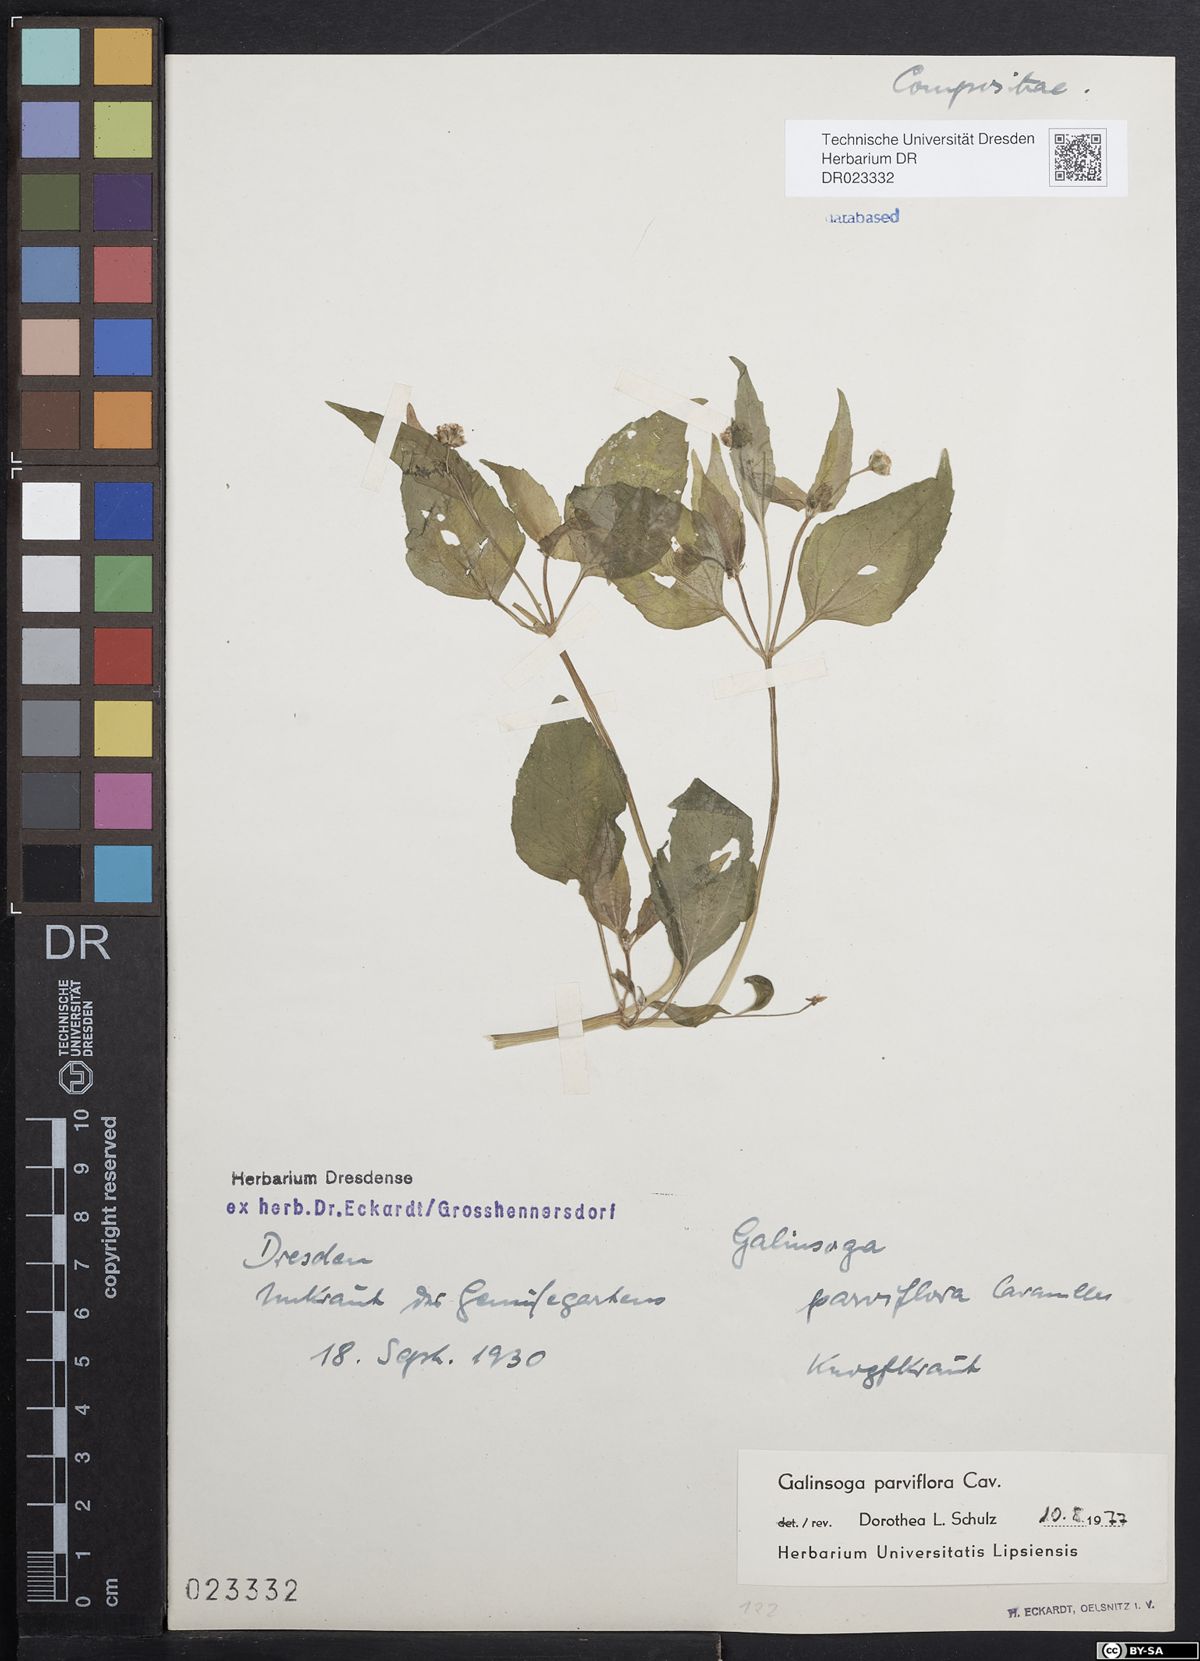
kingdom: Plantae
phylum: Tracheophyta
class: Magnoliopsida
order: Asterales
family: Asteraceae
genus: Galinsoga
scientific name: Galinsoga parviflora
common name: Gallant soldier
